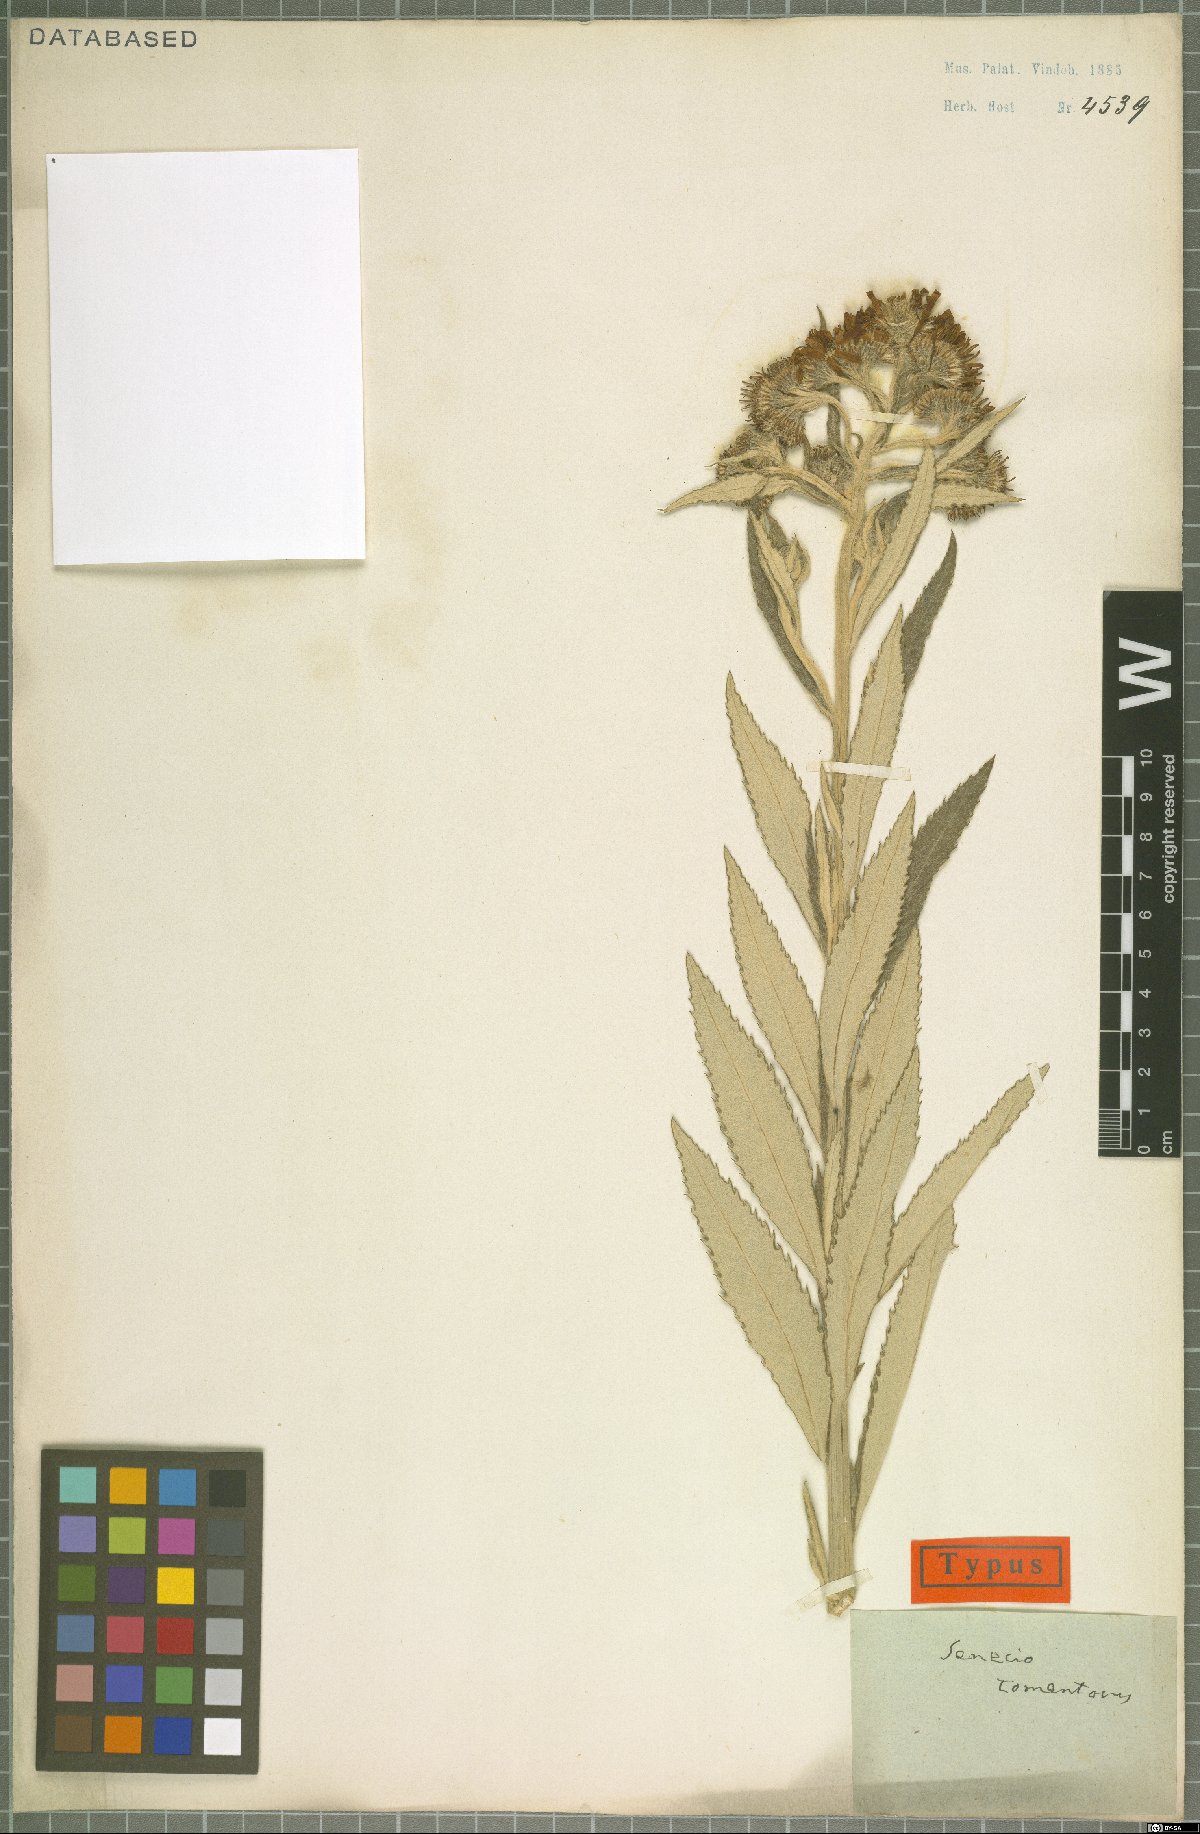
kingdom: Plantae
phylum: Tracheophyta
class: Magnoliopsida
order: Asterales
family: Asteraceae
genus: Jacobaea
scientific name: Jacobaea paludosa
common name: Fen ragwort
